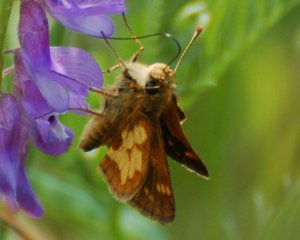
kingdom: Animalia
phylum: Arthropoda
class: Insecta
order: Lepidoptera
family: Hesperiidae
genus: Polites
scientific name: Polites coras
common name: Peck's Skipper
